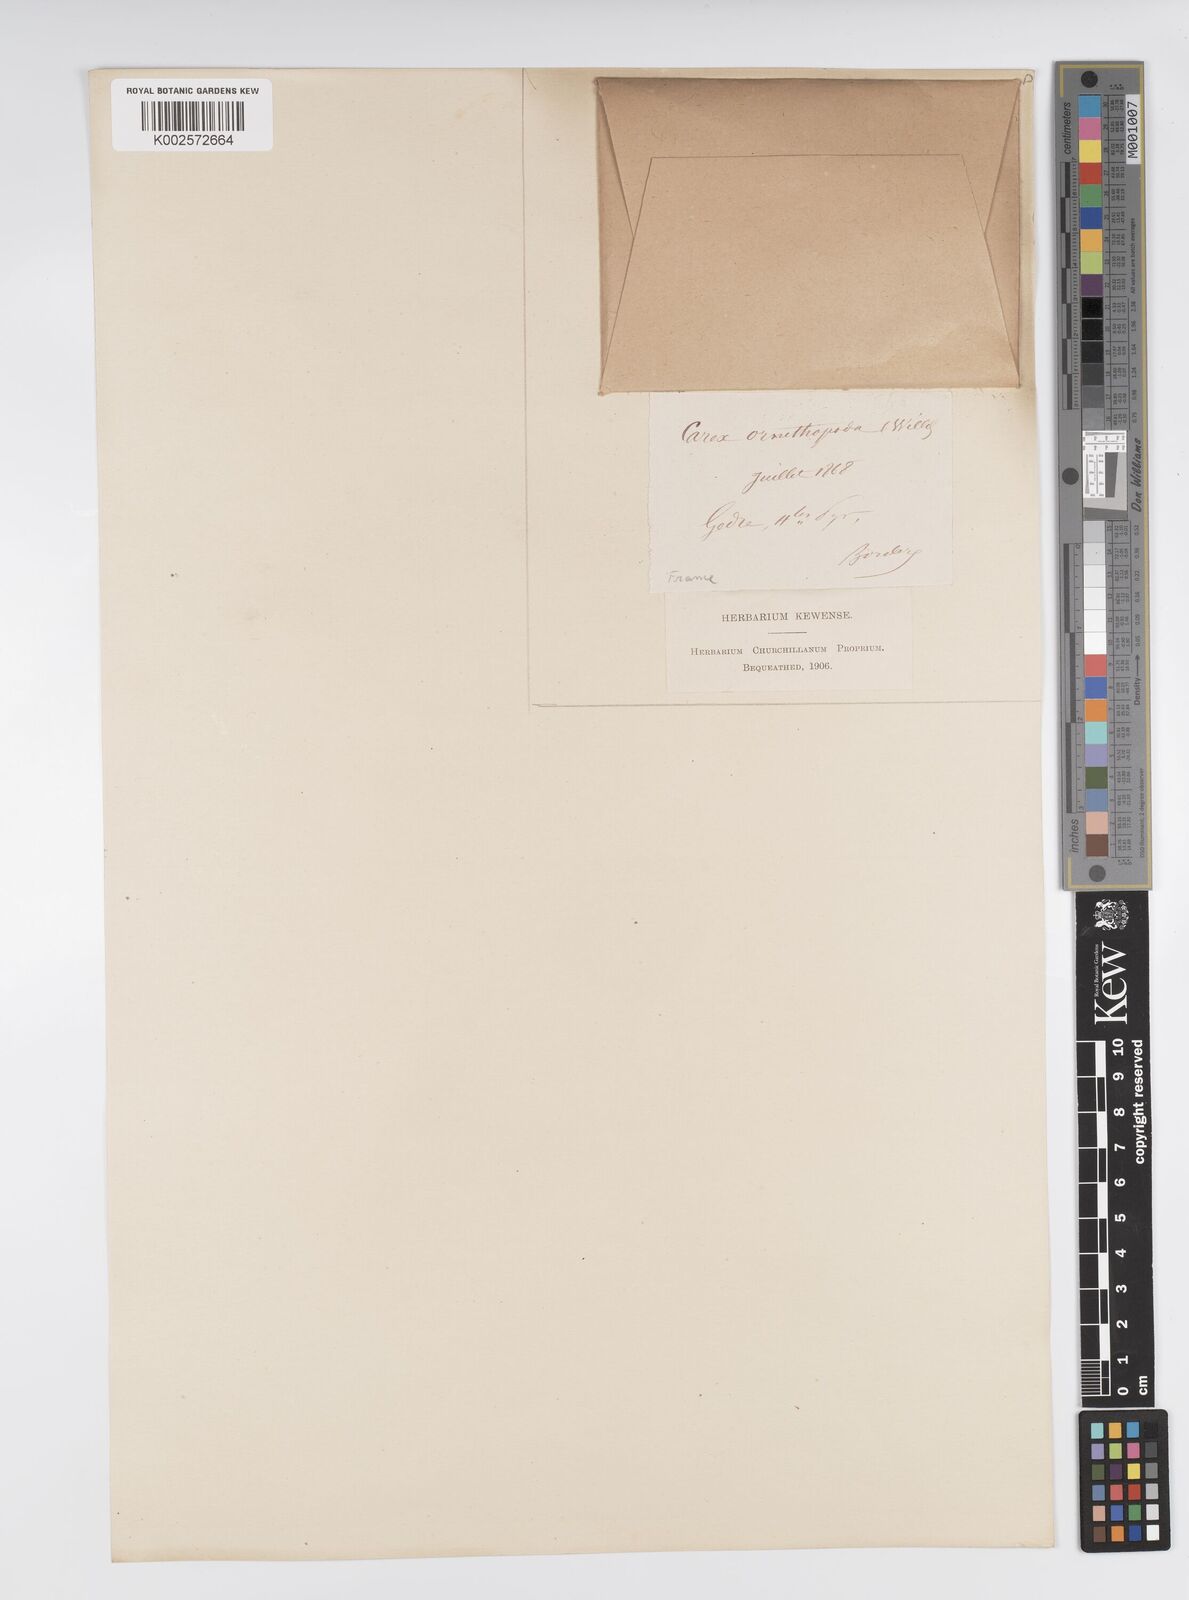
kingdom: Plantae
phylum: Tracheophyta
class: Liliopsida
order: Poales
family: Cyperaceae
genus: Carex
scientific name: Carex ornithopoda
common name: Bird's-foot sedge
